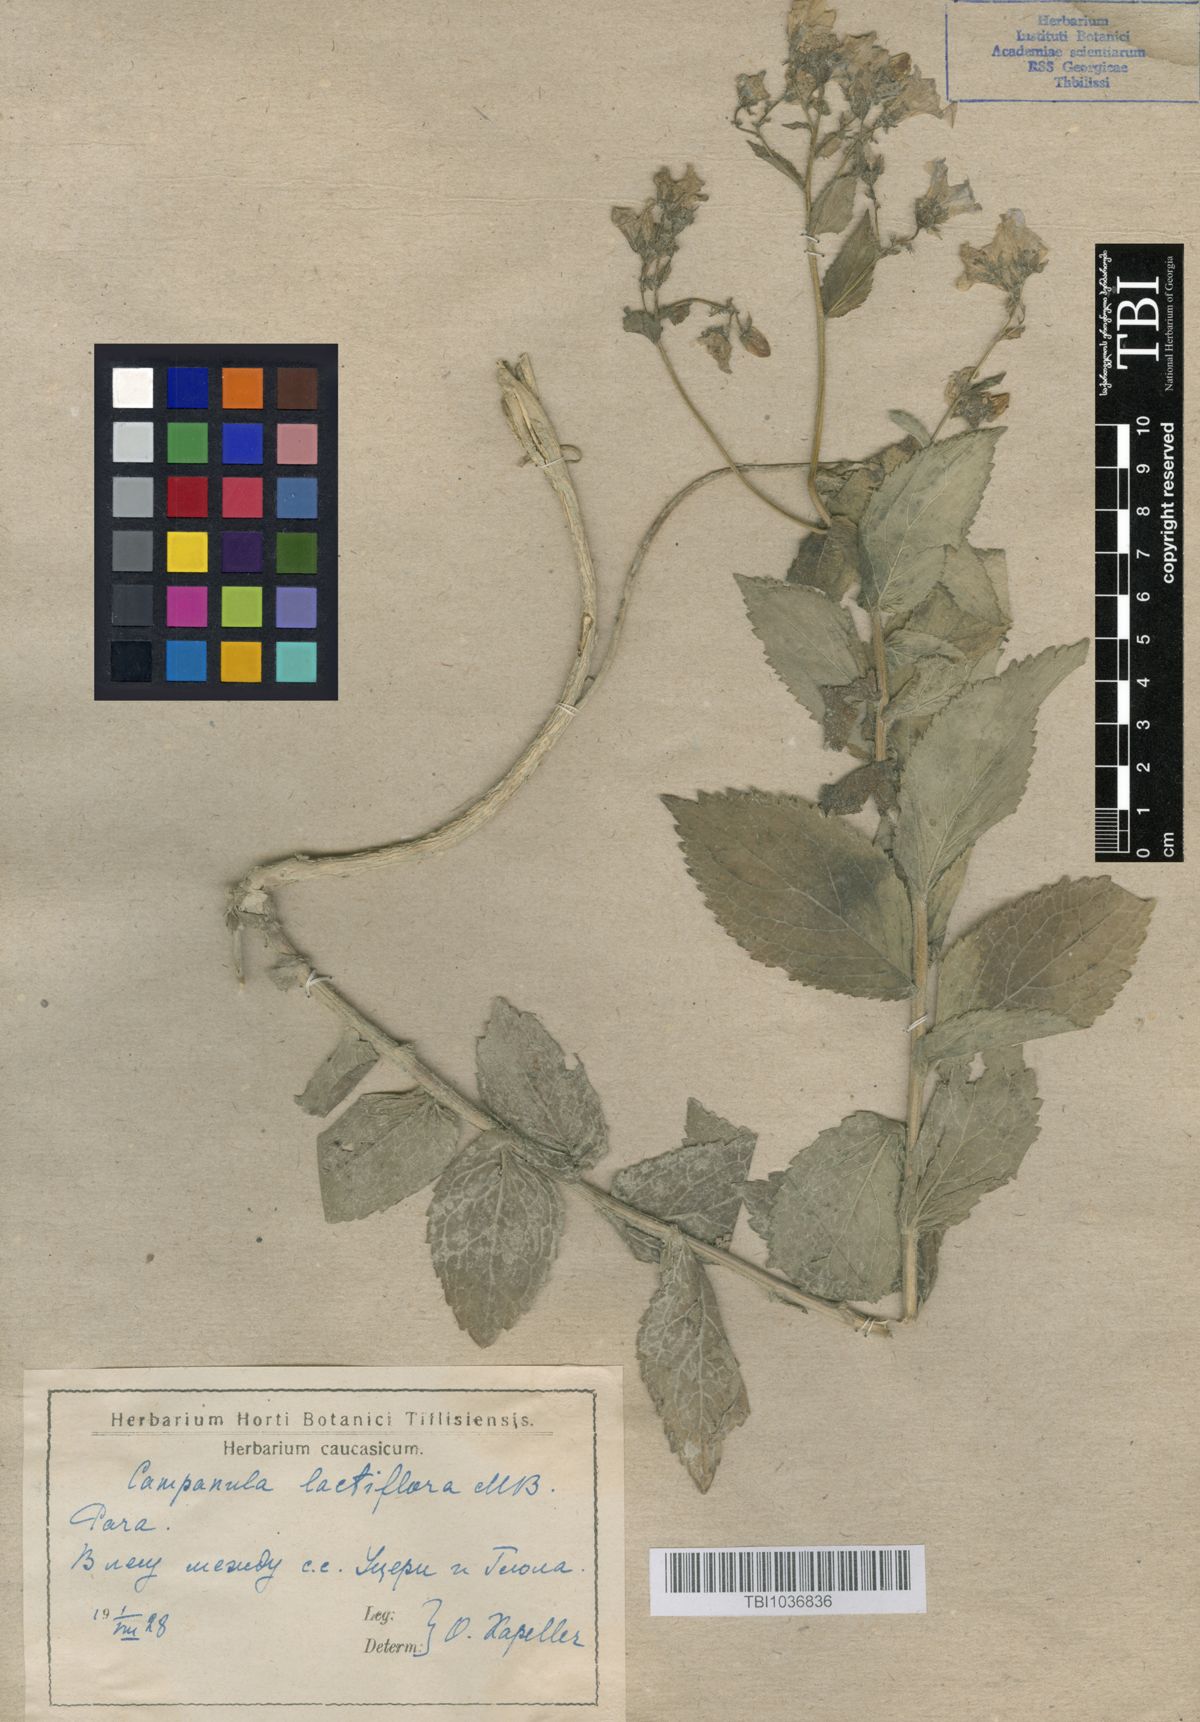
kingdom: Plantae
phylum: Tracheophyta
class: Magnoliopsida
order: Asterales
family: Campanulaceae
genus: Campanula
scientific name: Campanula lactiflora
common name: Milky bellflower
